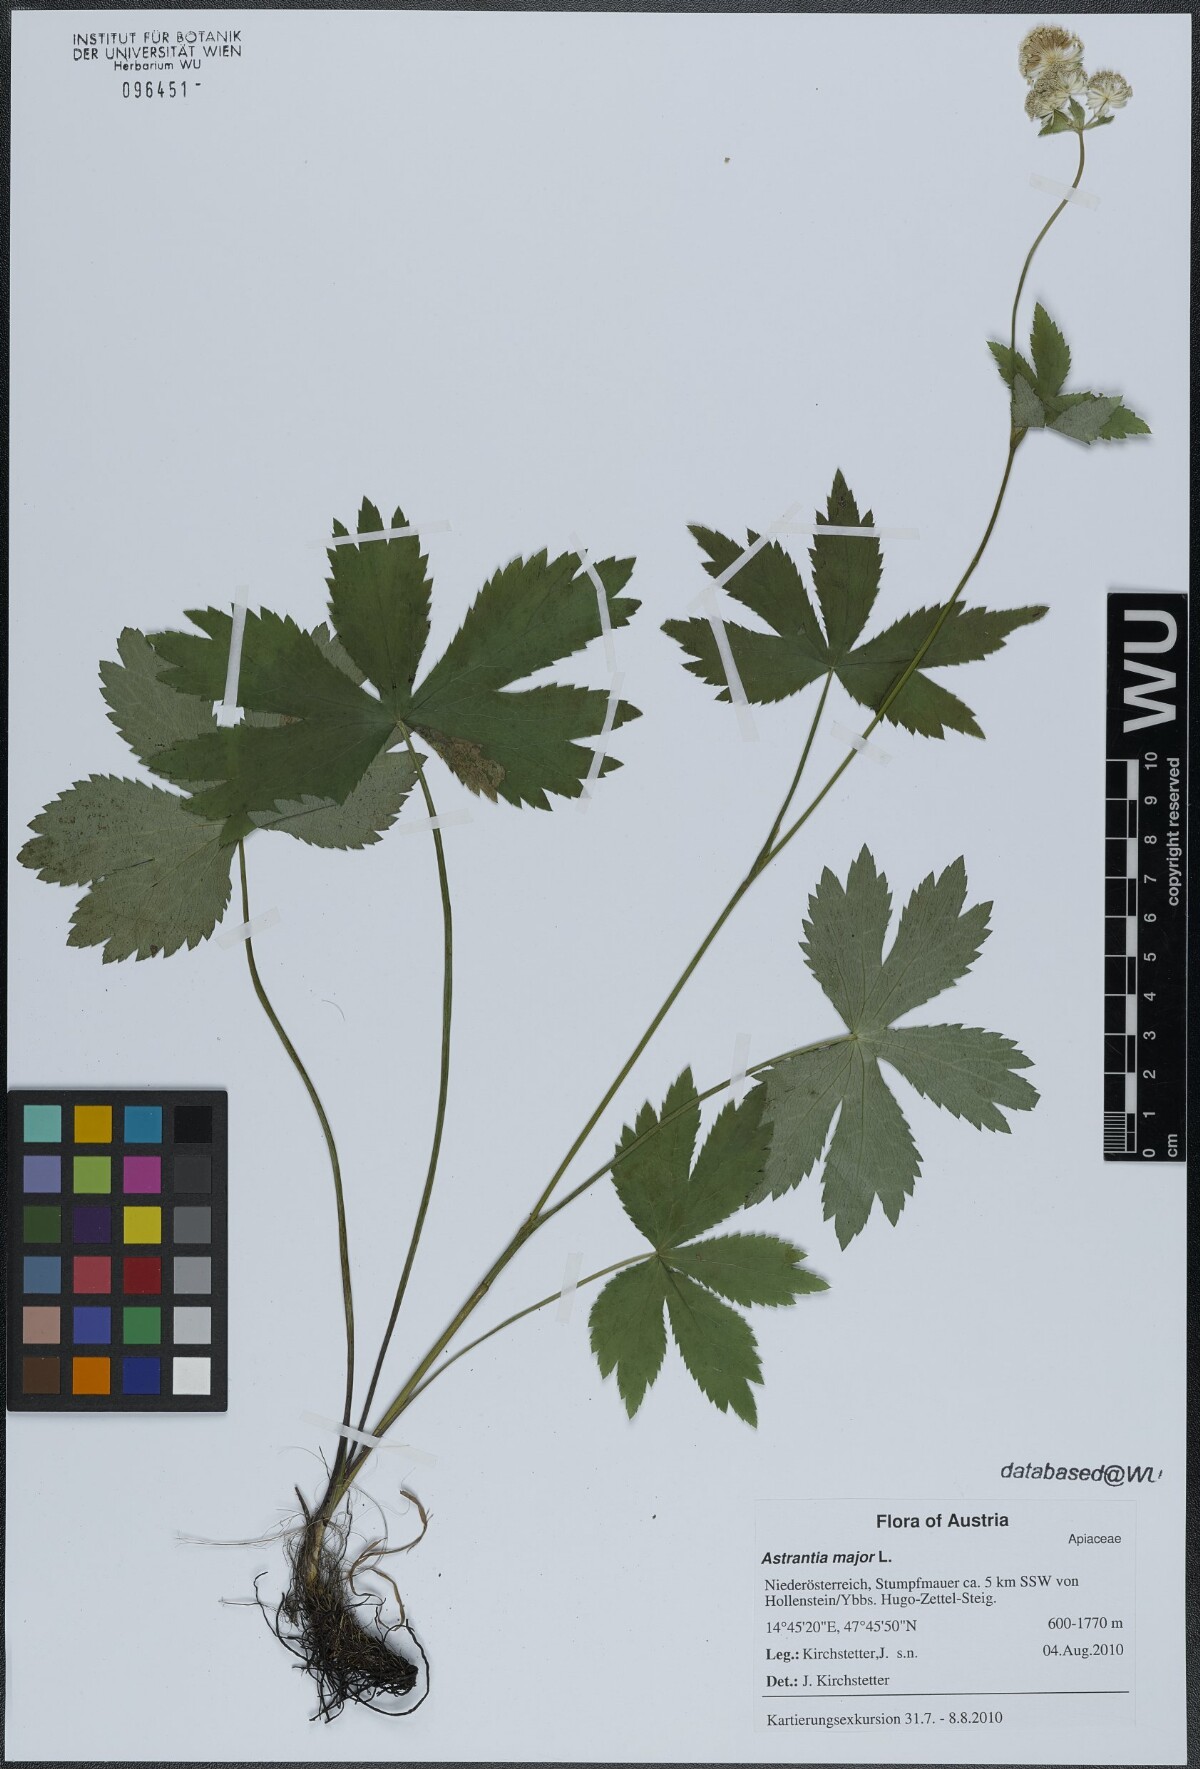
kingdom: Plantae
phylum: Tracheophyta
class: Magnoliopsida
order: Apiales
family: Apiaceae
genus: Astrantia
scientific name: Astrantia major
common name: Greater masterwort
